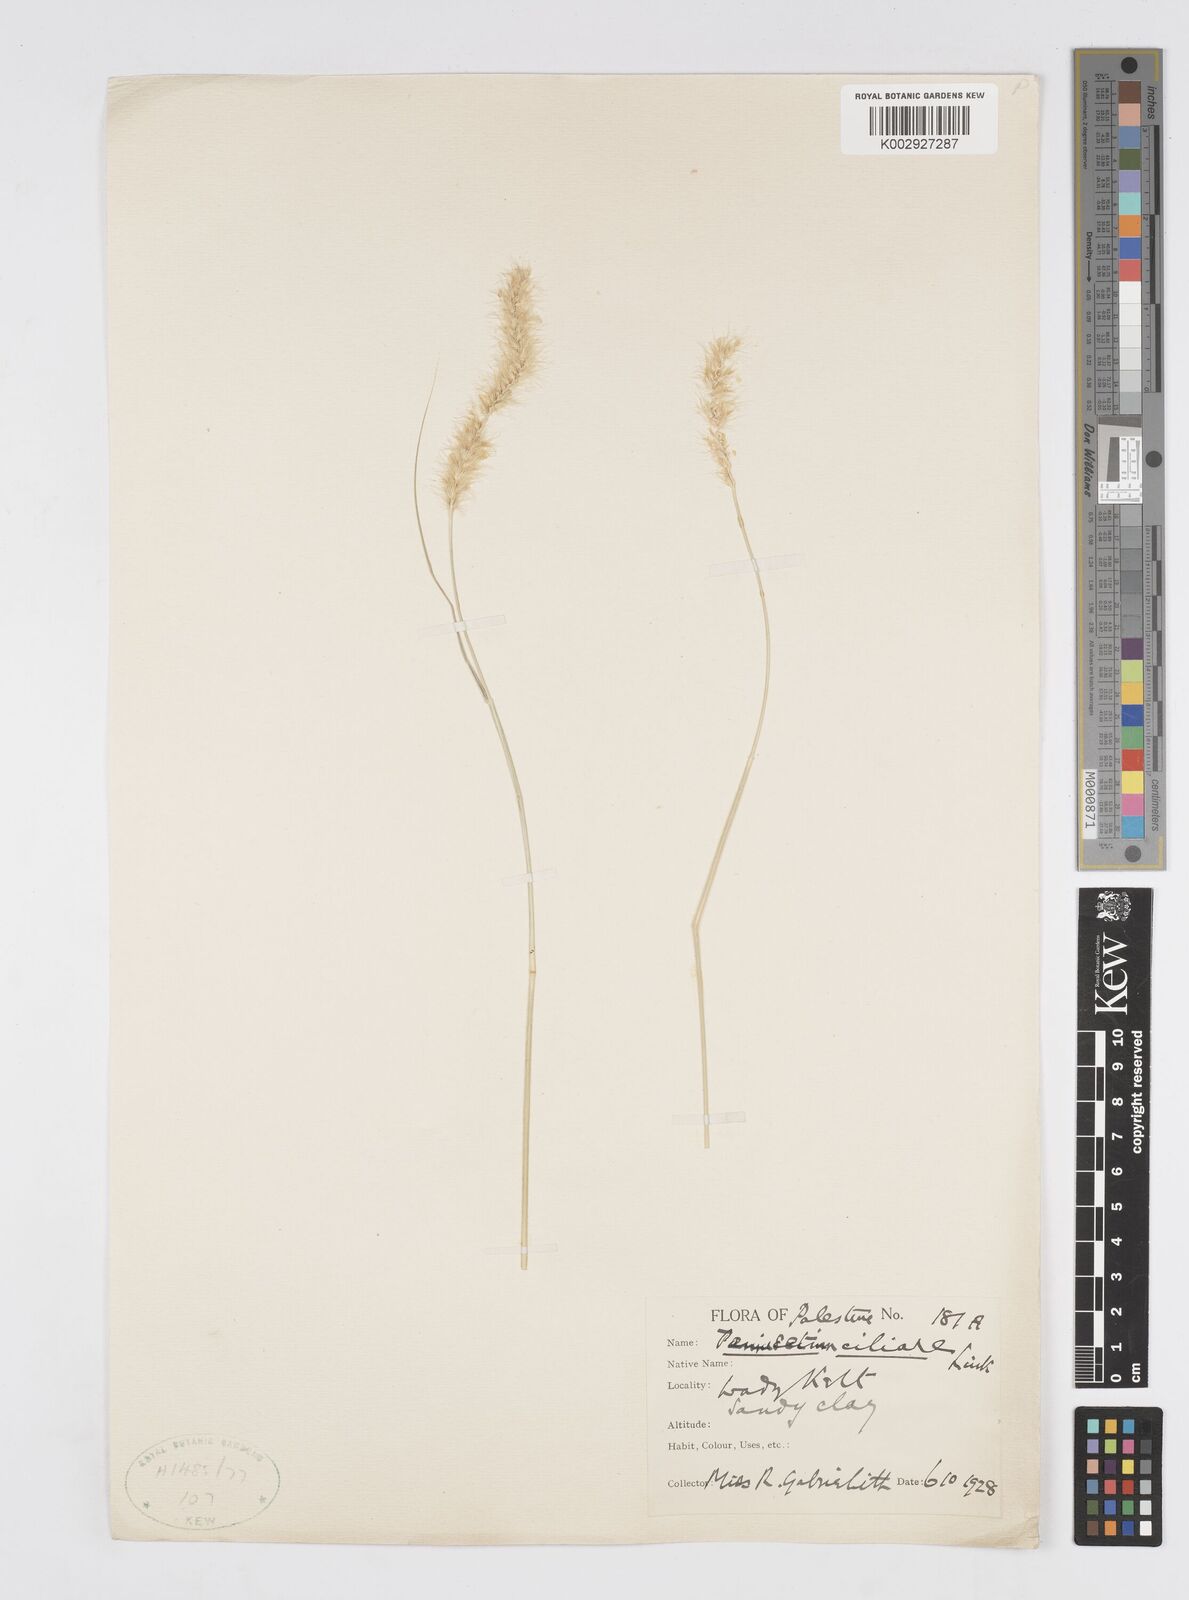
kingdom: Plantae
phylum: Tracheophyta
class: Liliopsida
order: Poales
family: Poaceae
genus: Cenchrus
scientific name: Cenchrus ciliaris
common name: Buffelgrass
